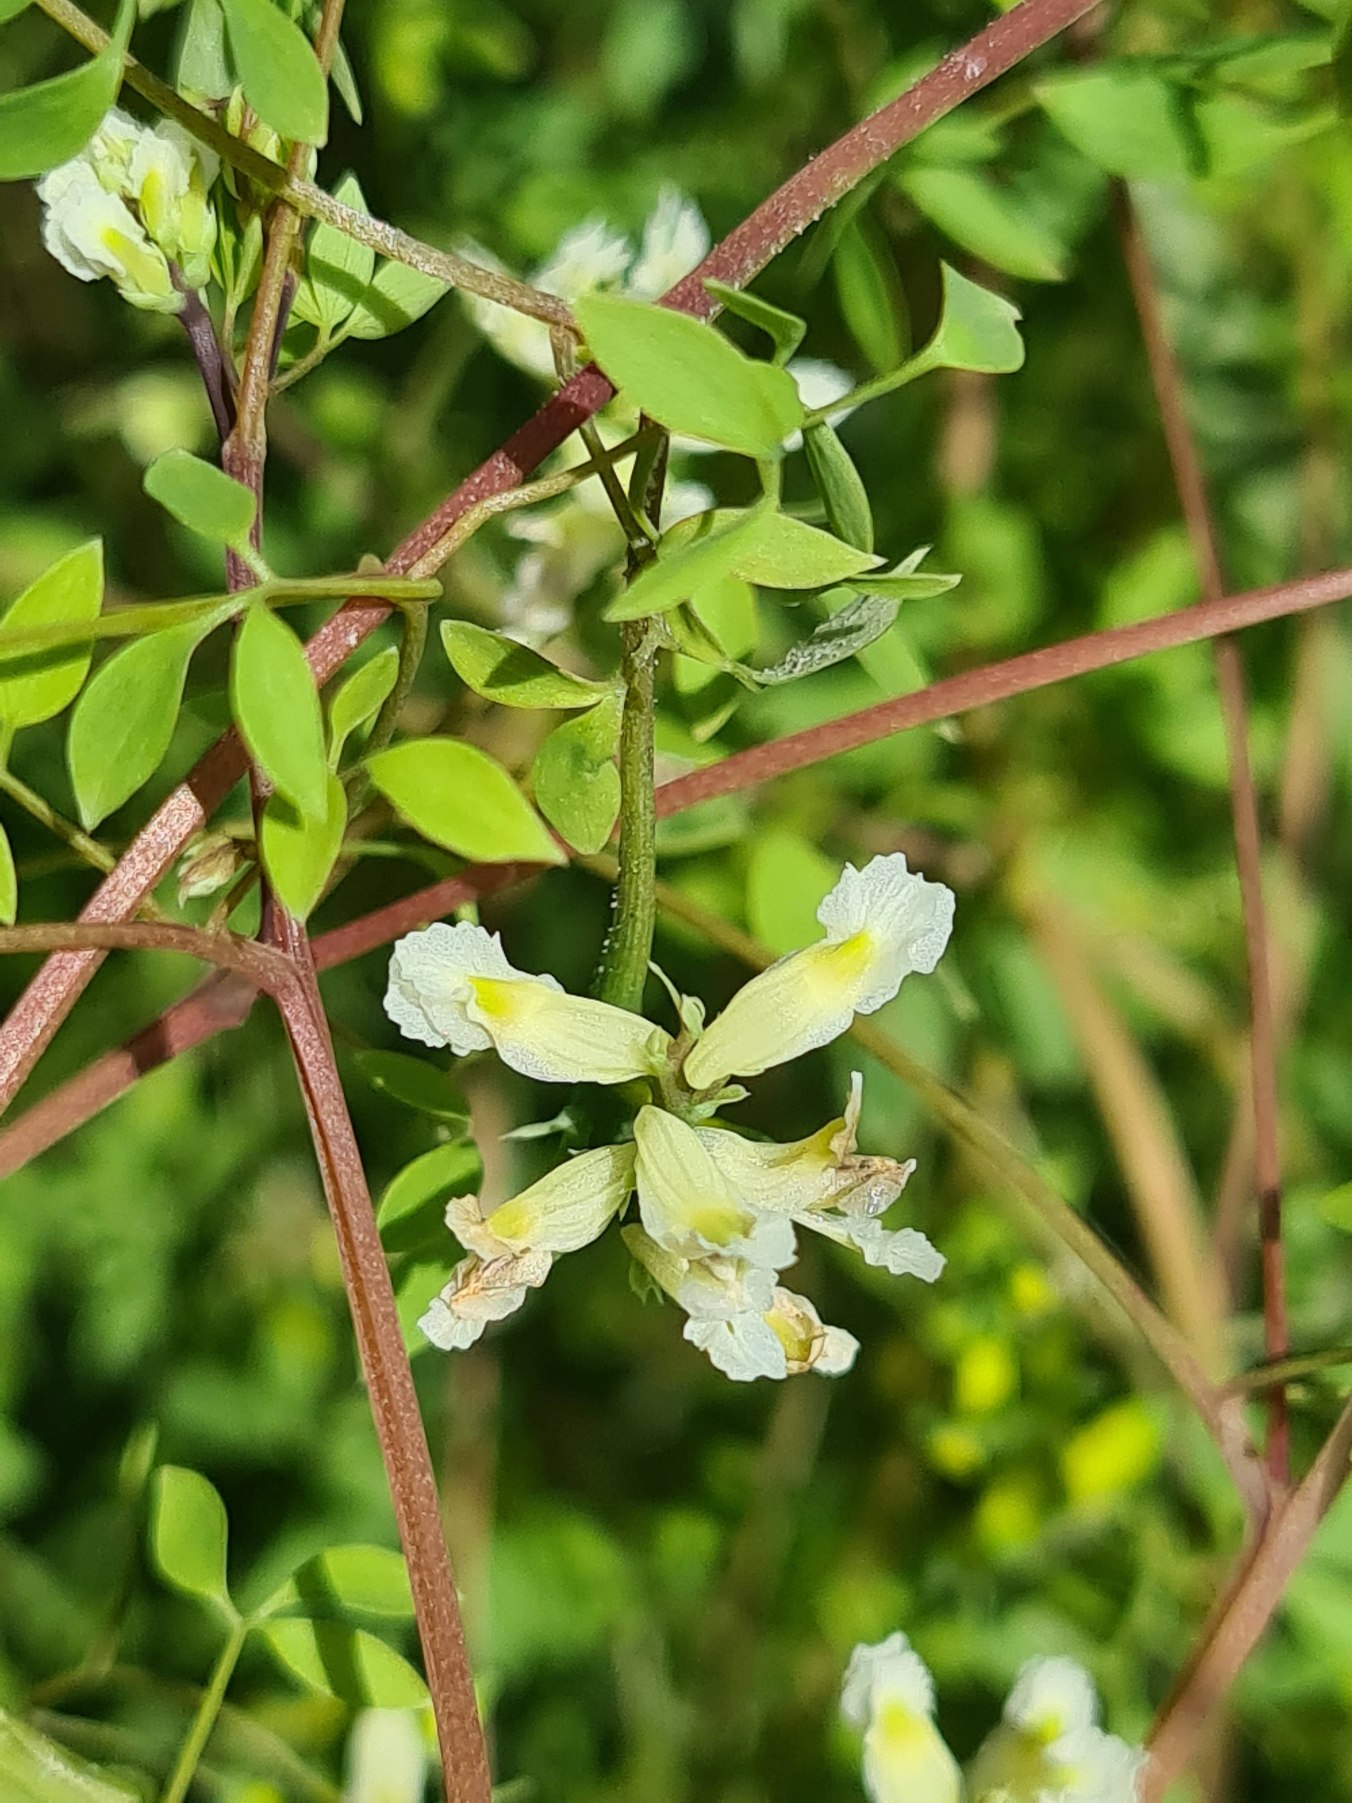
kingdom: Plantae
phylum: Tracheophyta
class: Magnoliopsida
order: Ranunculales
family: Papaveraceae
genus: Ceratocapnos
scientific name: Ceratocapnos claviculata
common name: Klatrende lærkespore
